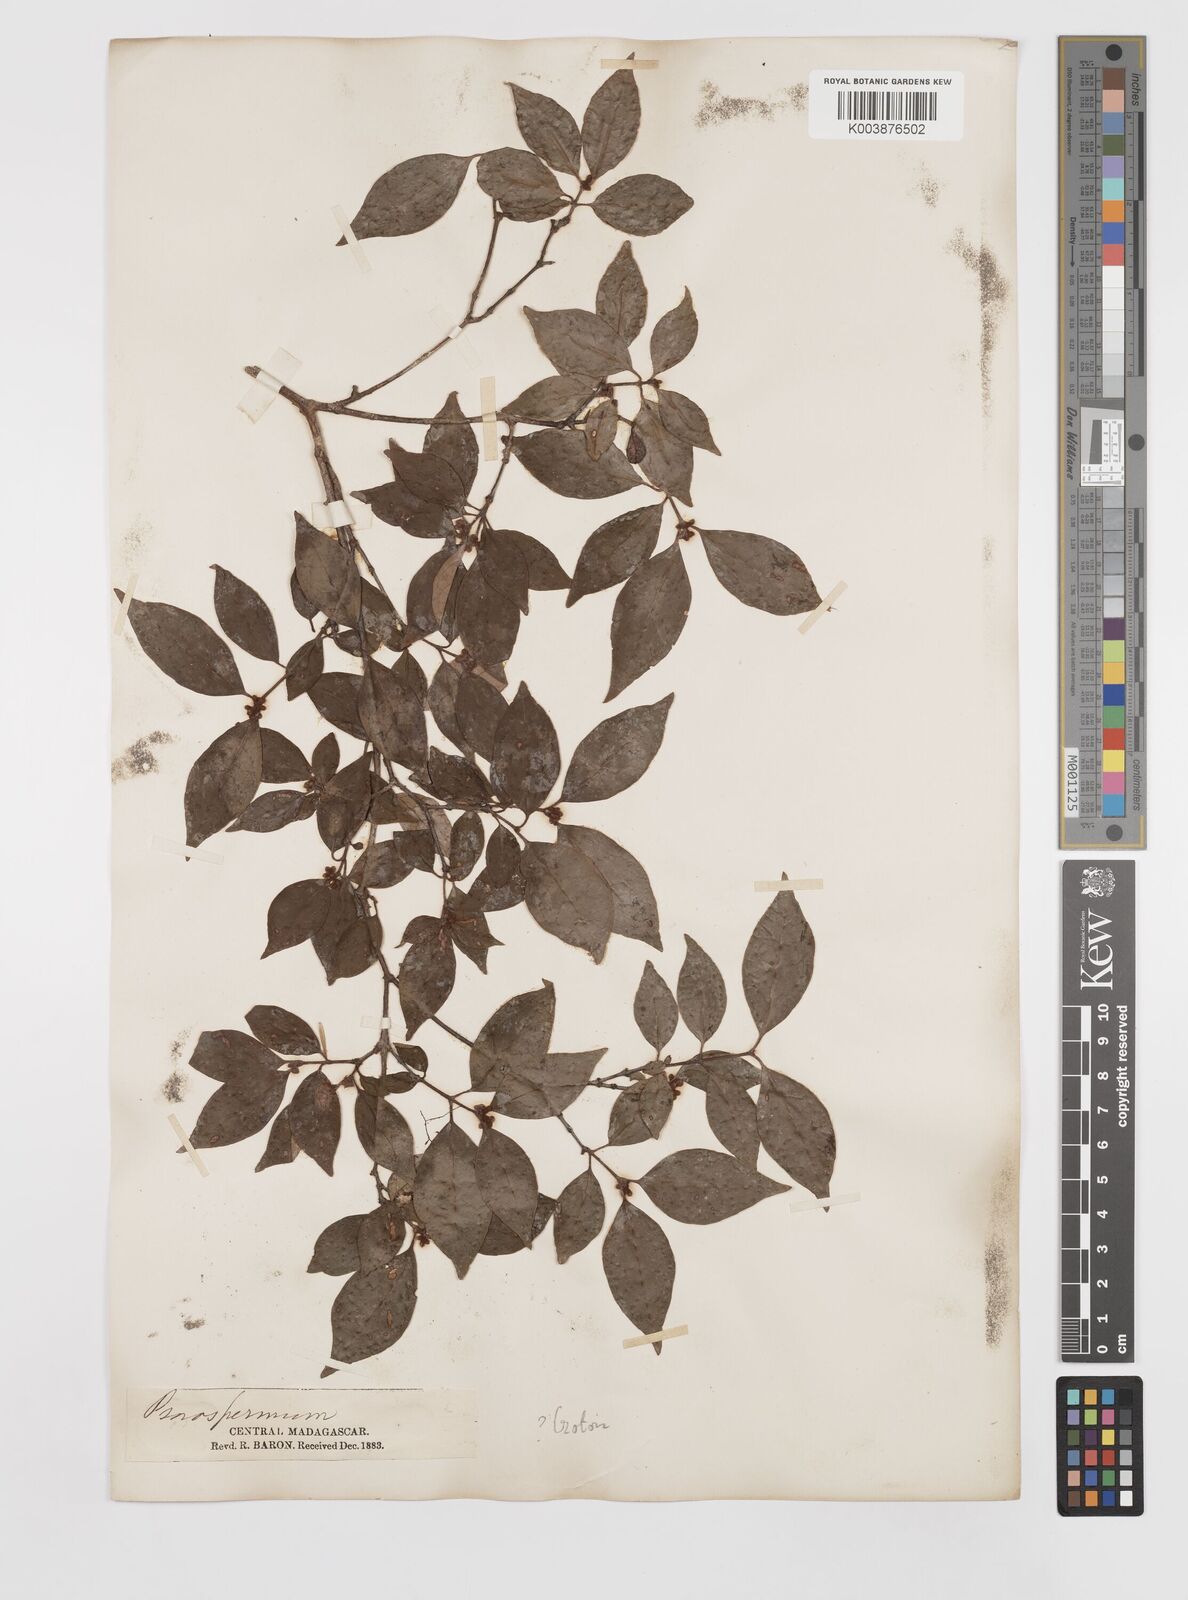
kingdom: Plantae
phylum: Tracheophyta
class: Magnoliopsida
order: Malpighiales
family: Hypericaceae
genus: Psorospermum
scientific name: Psorospermum
